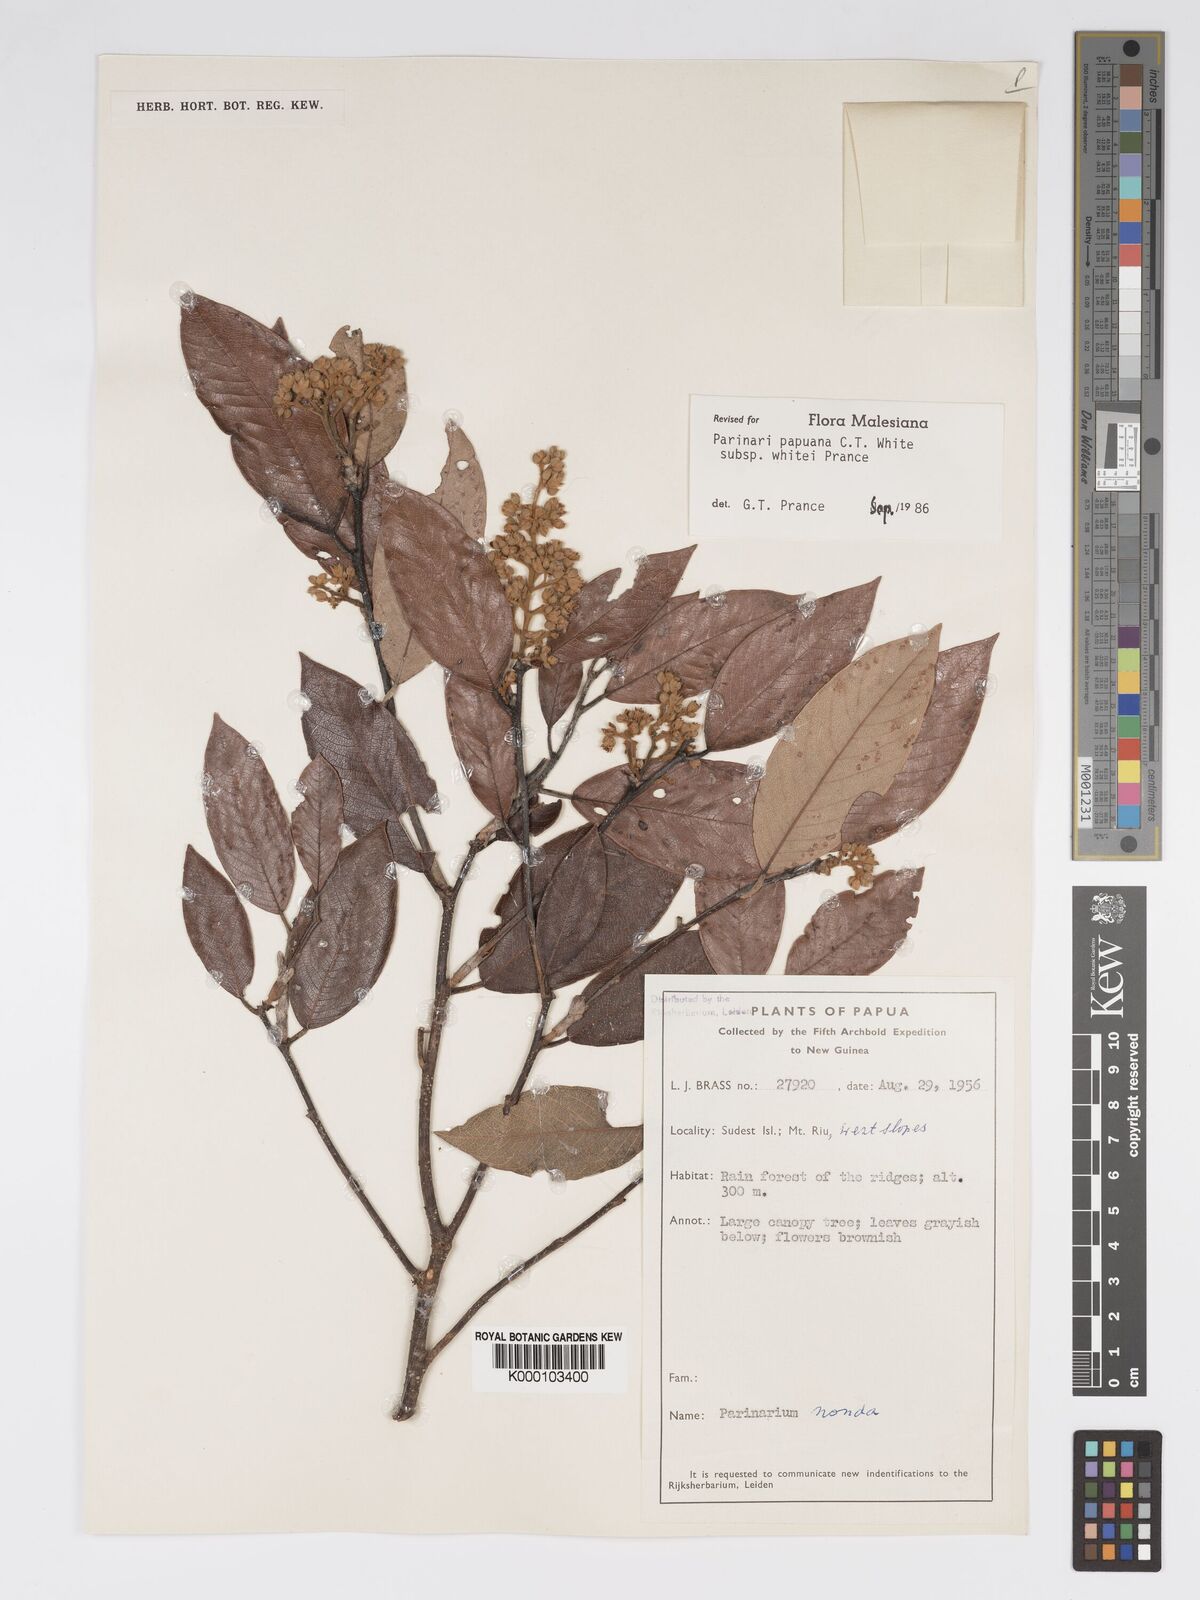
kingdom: Plantae
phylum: Tracheophyta
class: Magnoliopsida
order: Malpighiales
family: Chrysobalanaceae
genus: Parinari
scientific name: Parinari papuana
